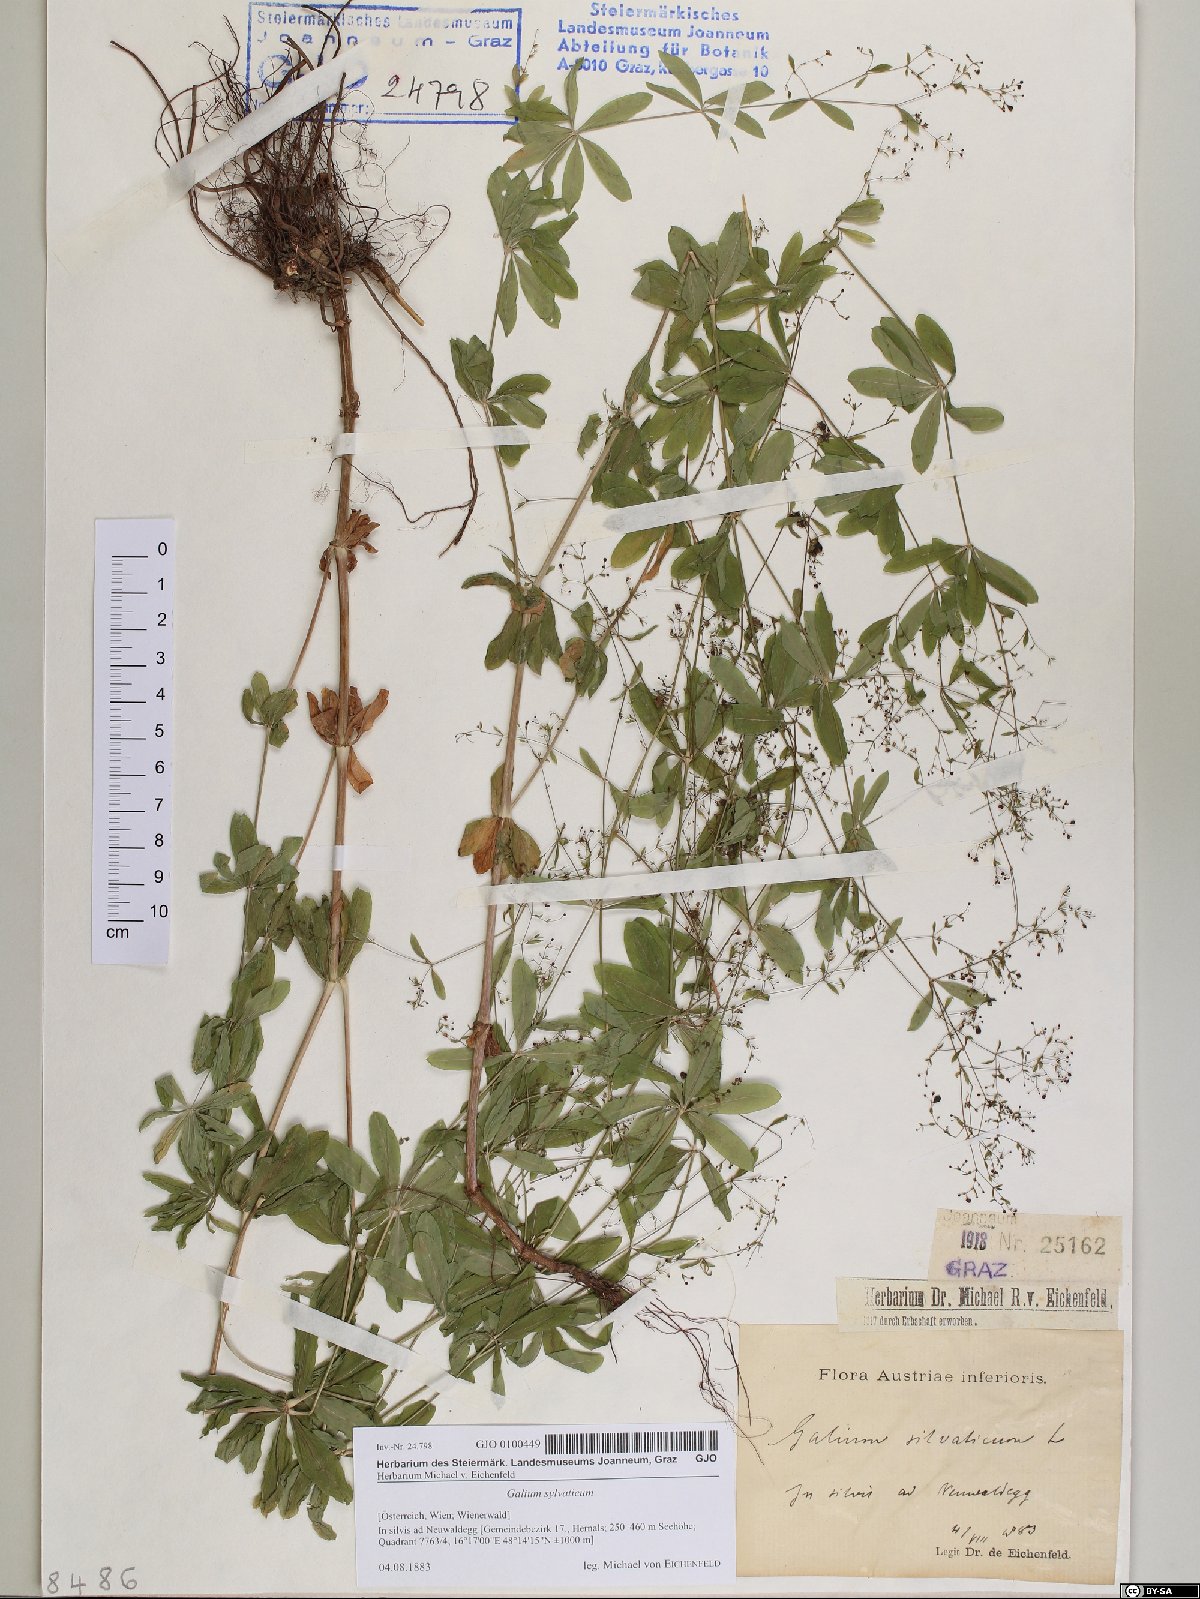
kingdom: Plantae
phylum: Tracheophyta
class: Magnoliopsida
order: Gentianales
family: Rubiaceae
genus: Galium
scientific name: Galium sylvaticum
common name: Wood bedstraw
